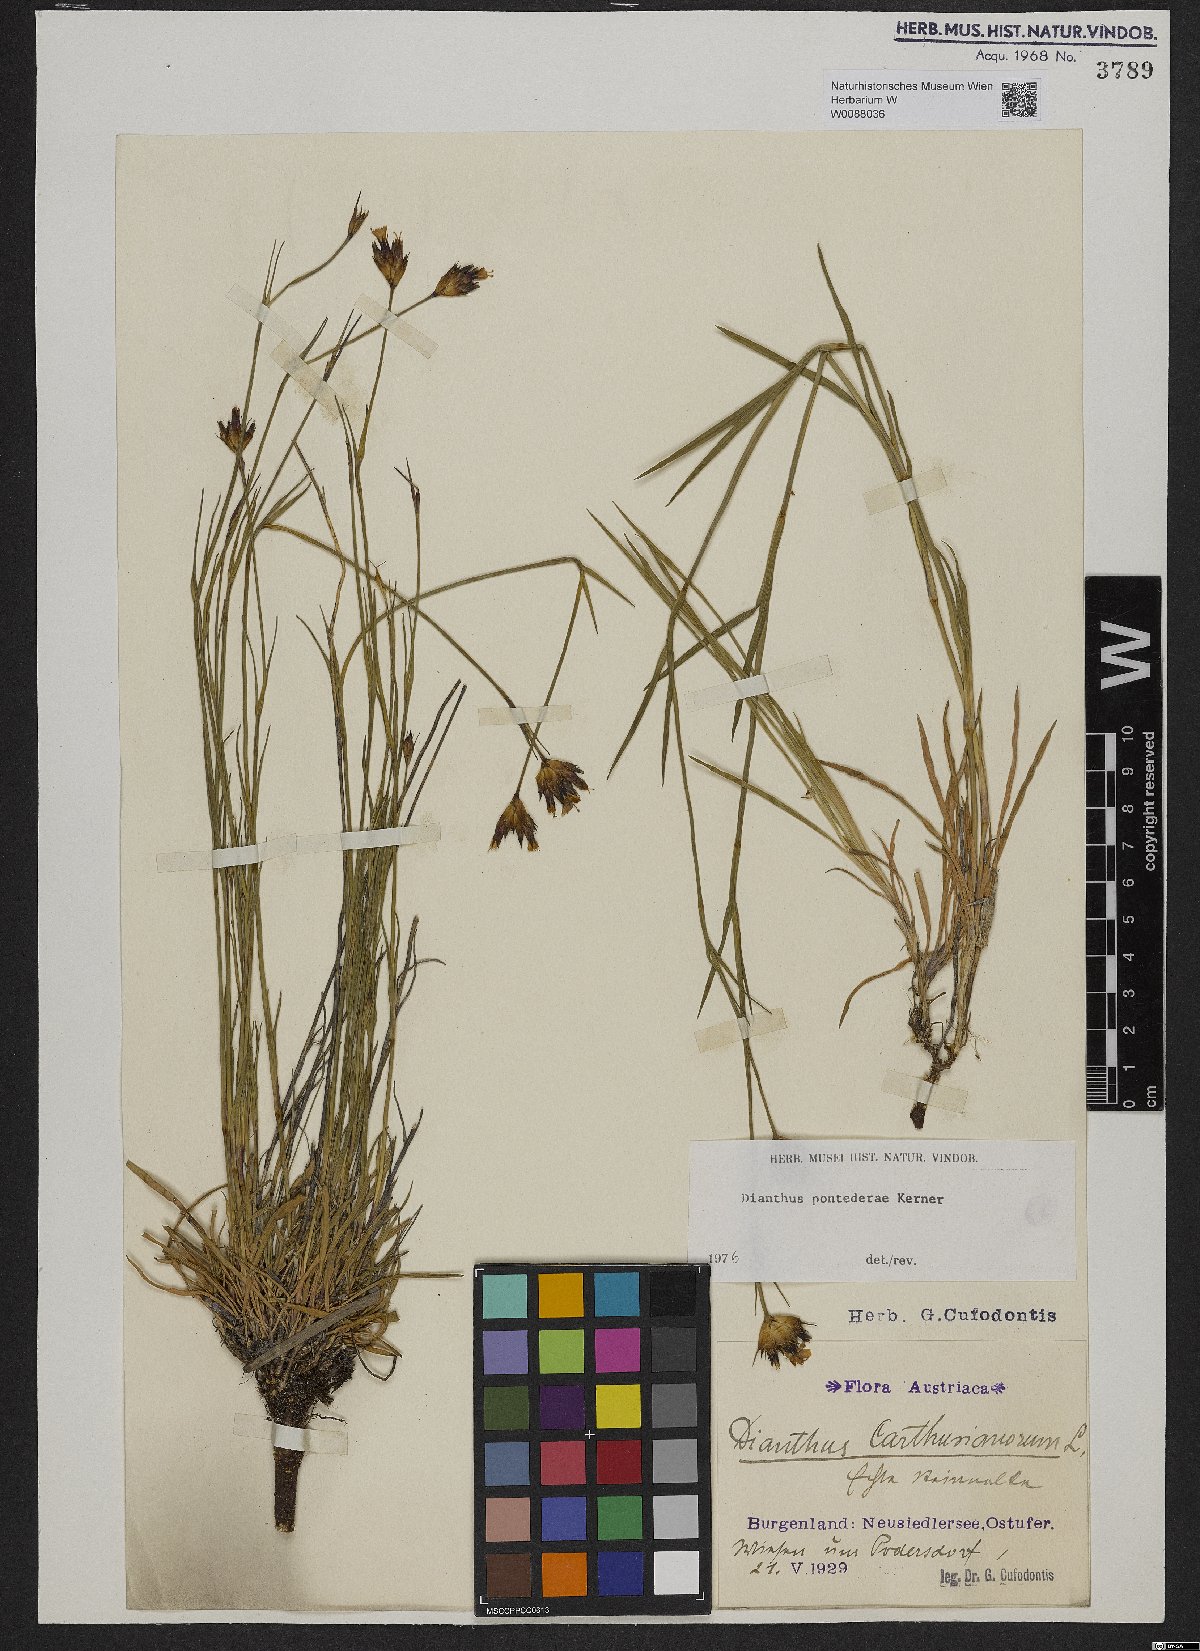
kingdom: Plantae
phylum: Tracheophyta
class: Magnoliopsida
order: Caryophyllales
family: Caryophyllaceae
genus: Dianthus
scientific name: Dianthus pontederae
